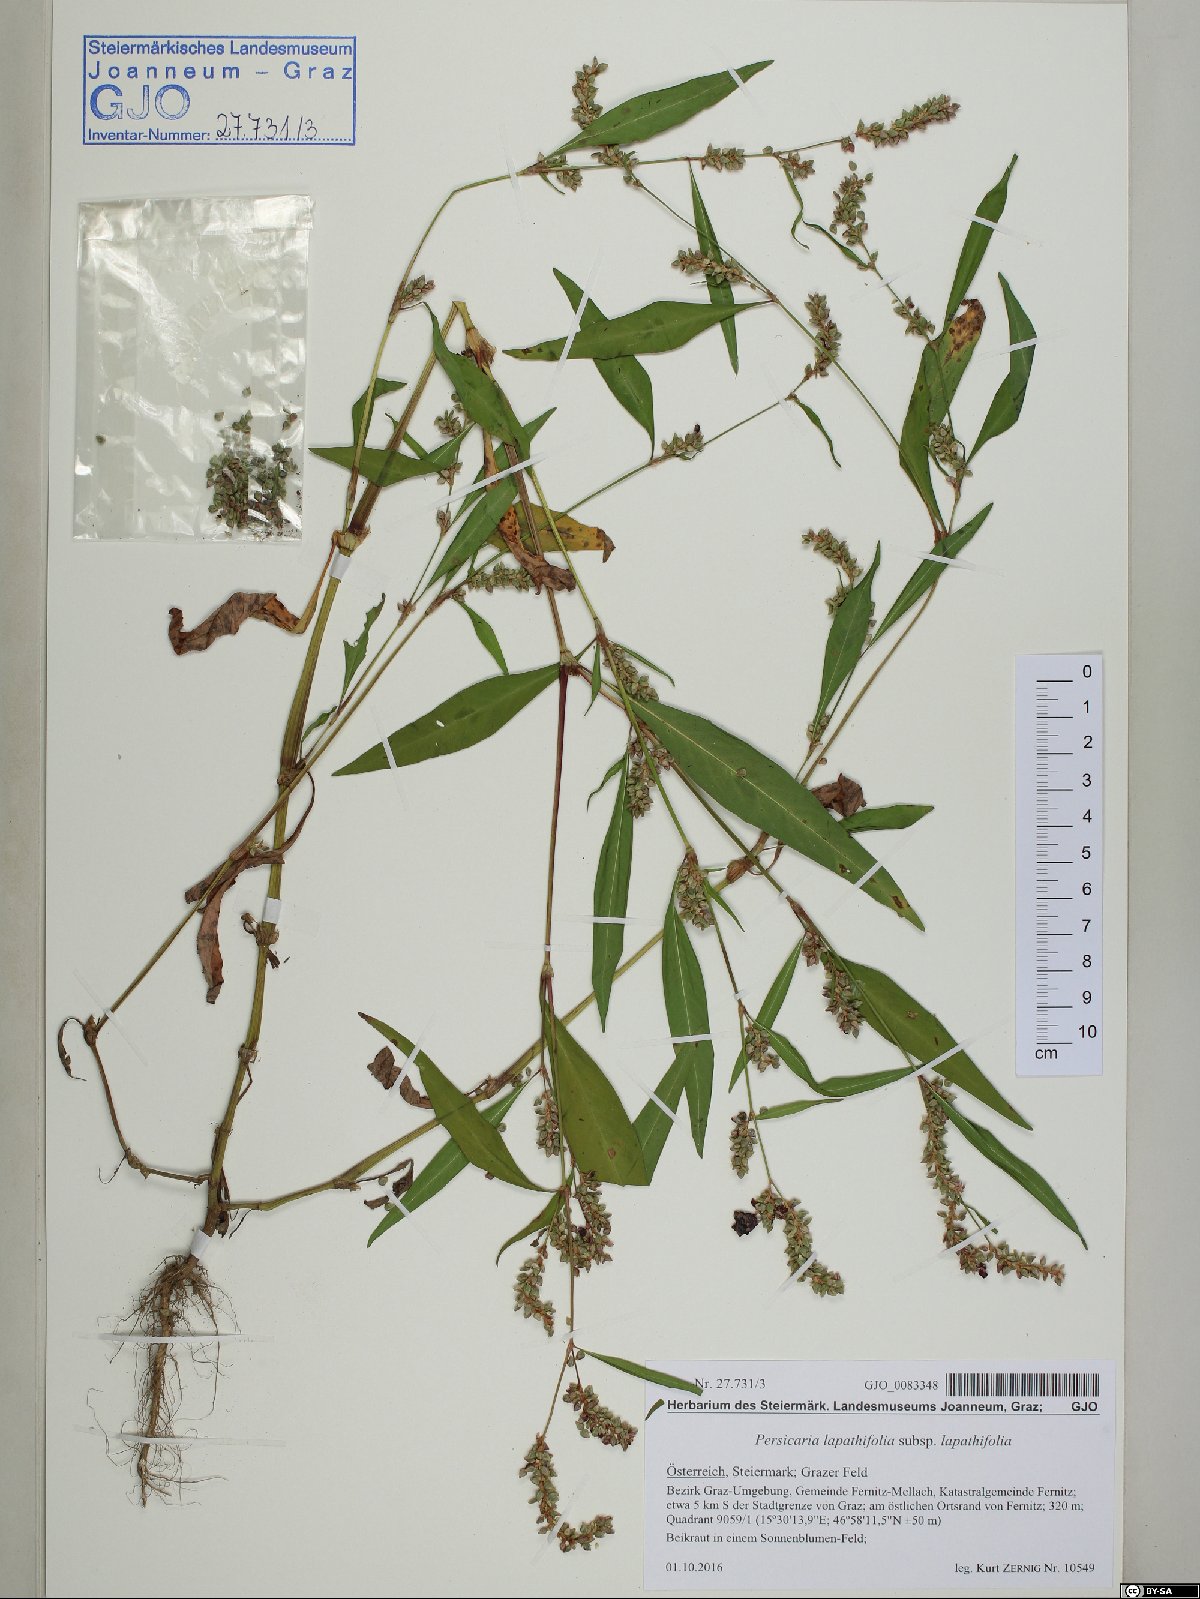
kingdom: Plantae
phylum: Tracheophyta
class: Magnoliopsida
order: Caryophyllales
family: Polygonaceae
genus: Persicaria
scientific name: Persicaria lapathifolia
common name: Curlytop knotweed
